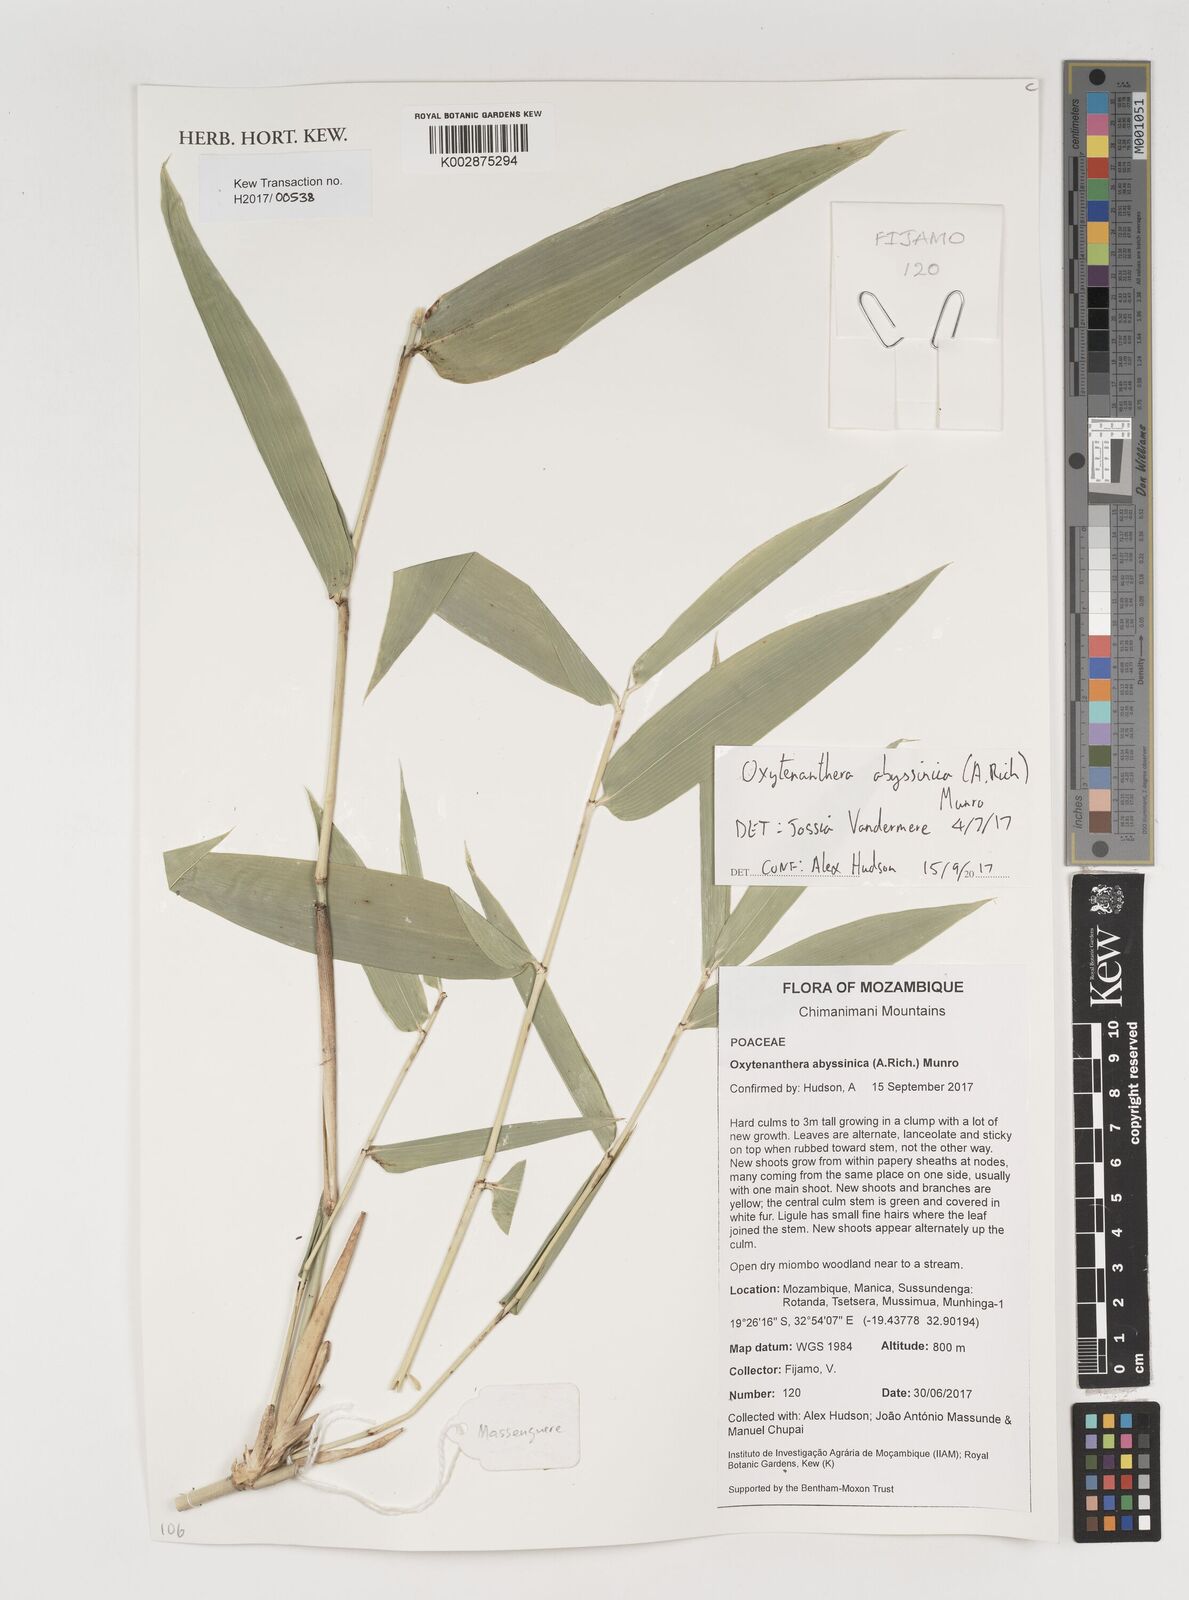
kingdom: Plantae
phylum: Tracheophyta
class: Liliopsida
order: Poales
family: Poaceae
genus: Oxytenanthera
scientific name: Oxytenanthera abyssinica
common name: Wine bamboo
